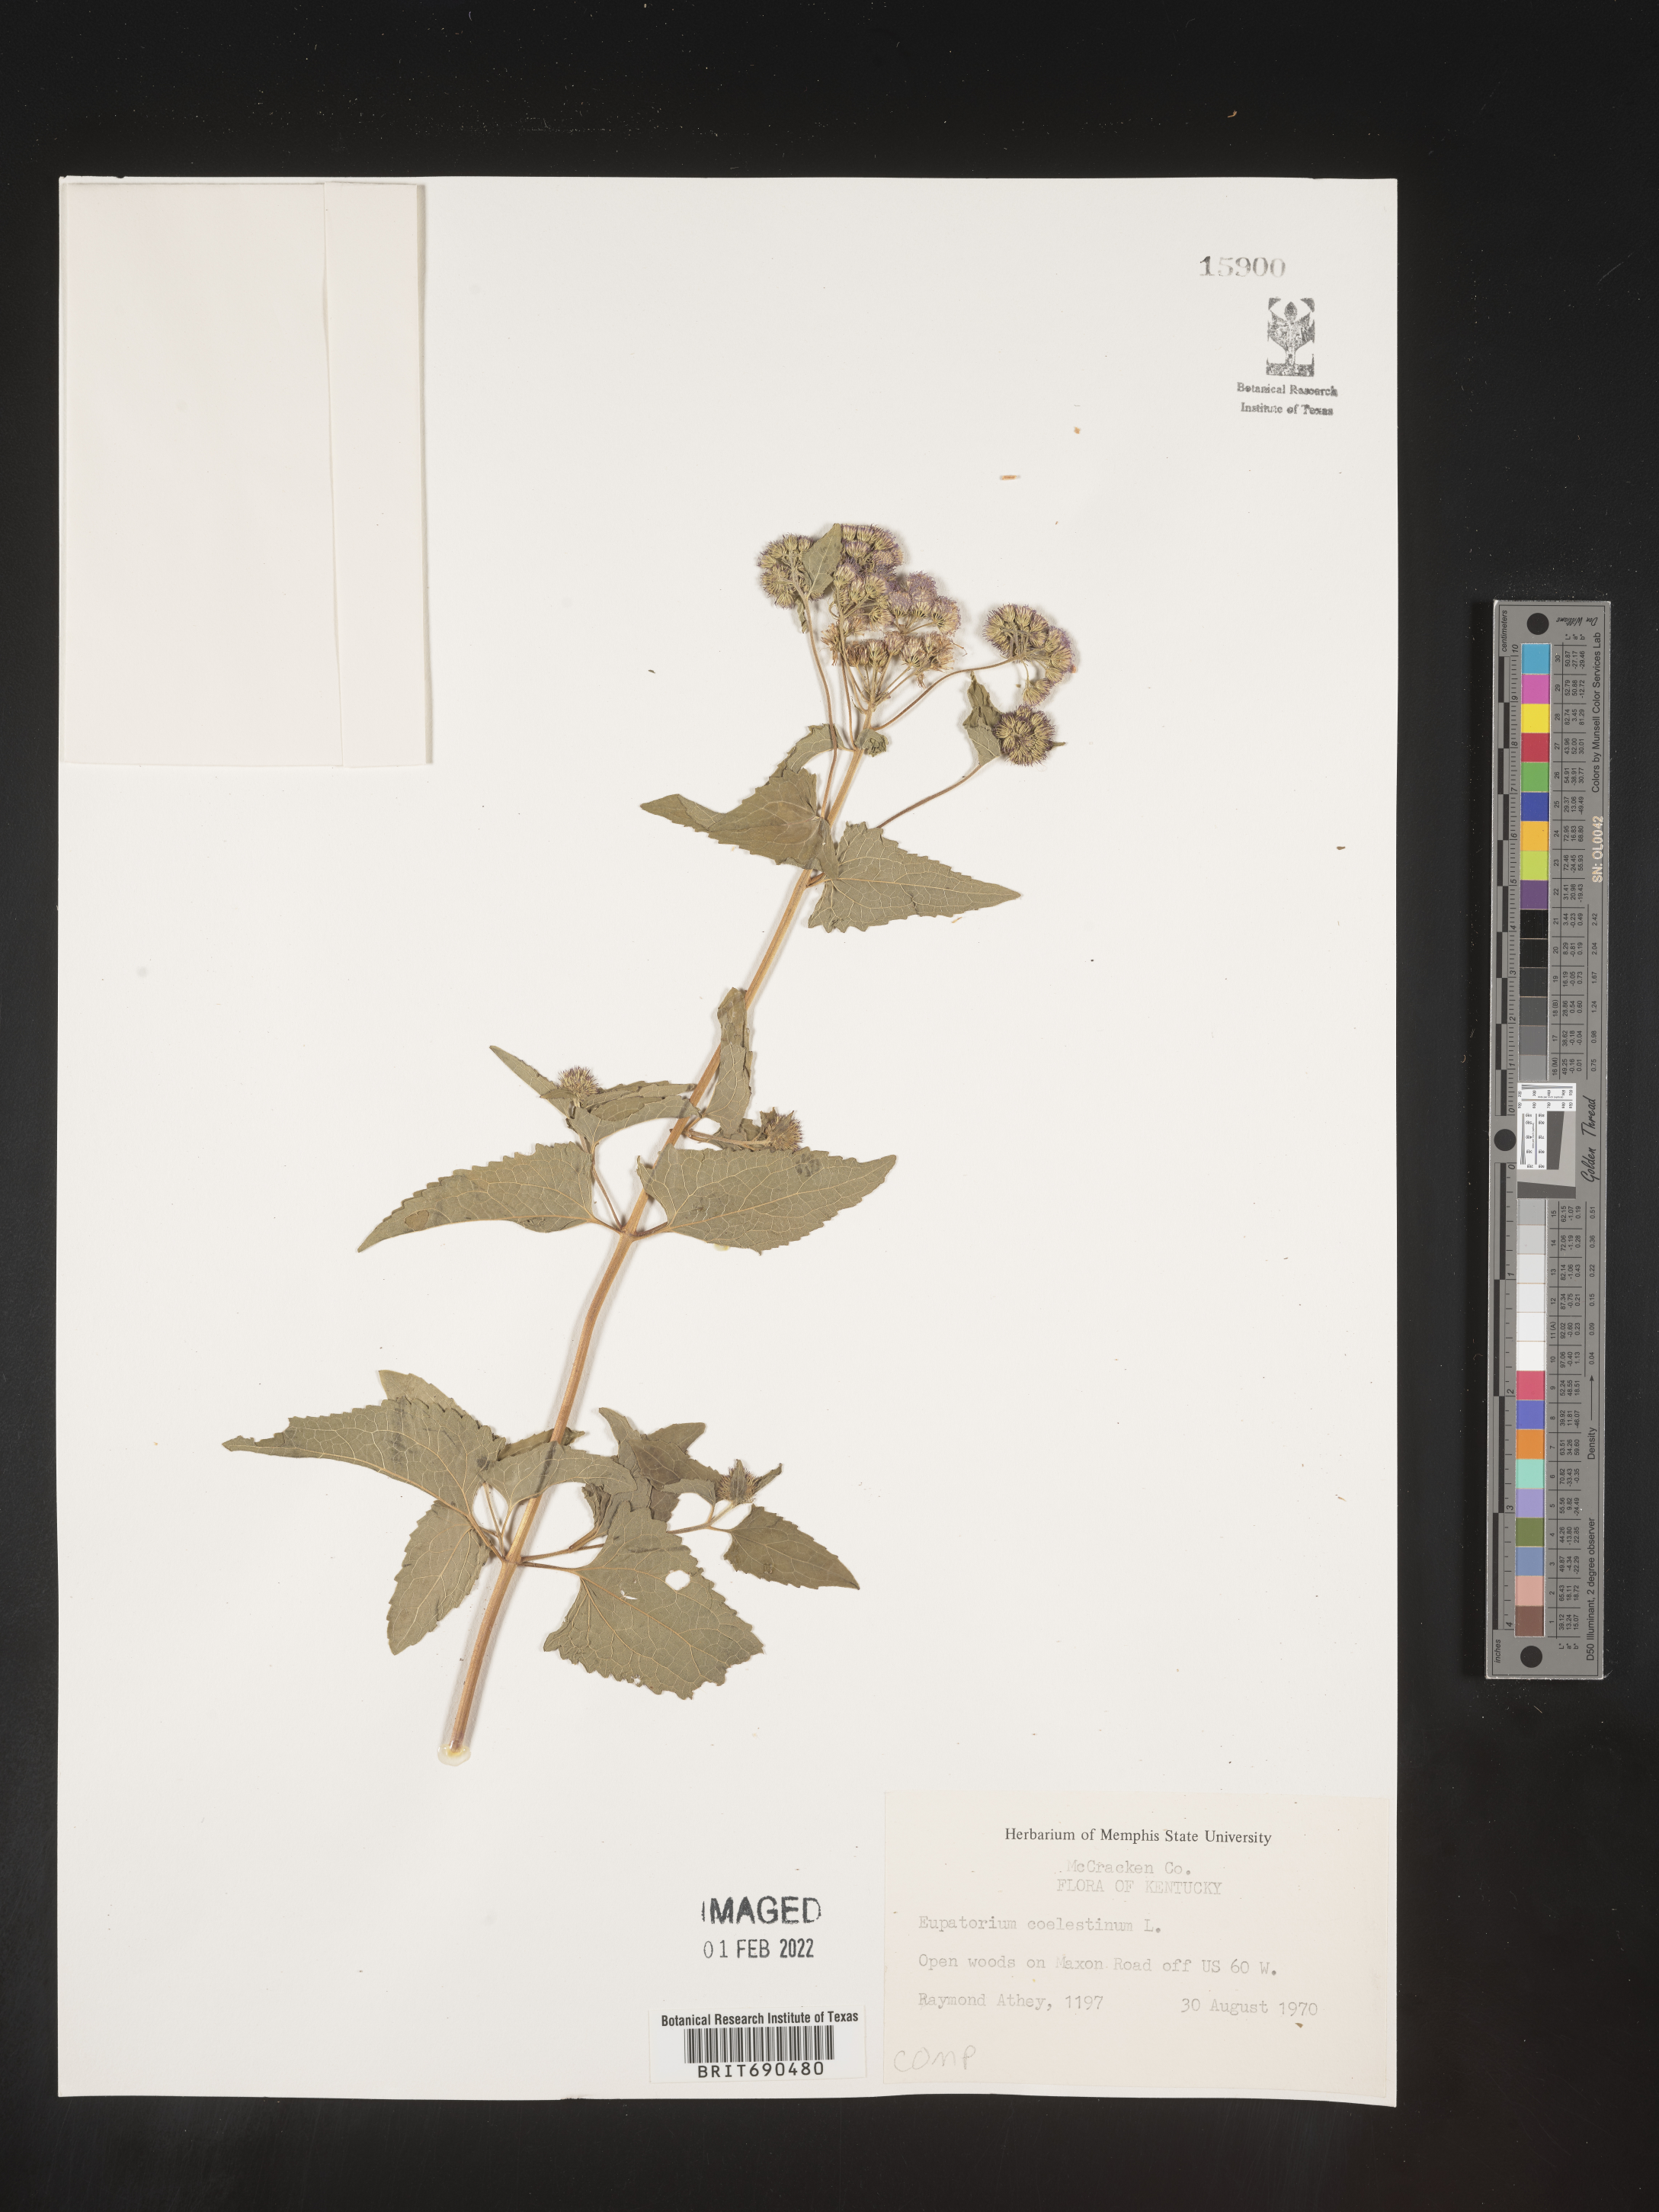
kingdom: Plantae
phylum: Tracheophyta
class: Magnoliopsida
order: Asterales
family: Asteraceae
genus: Conoclinium
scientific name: Conoclinium coelestinum
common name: Blue mistflower
